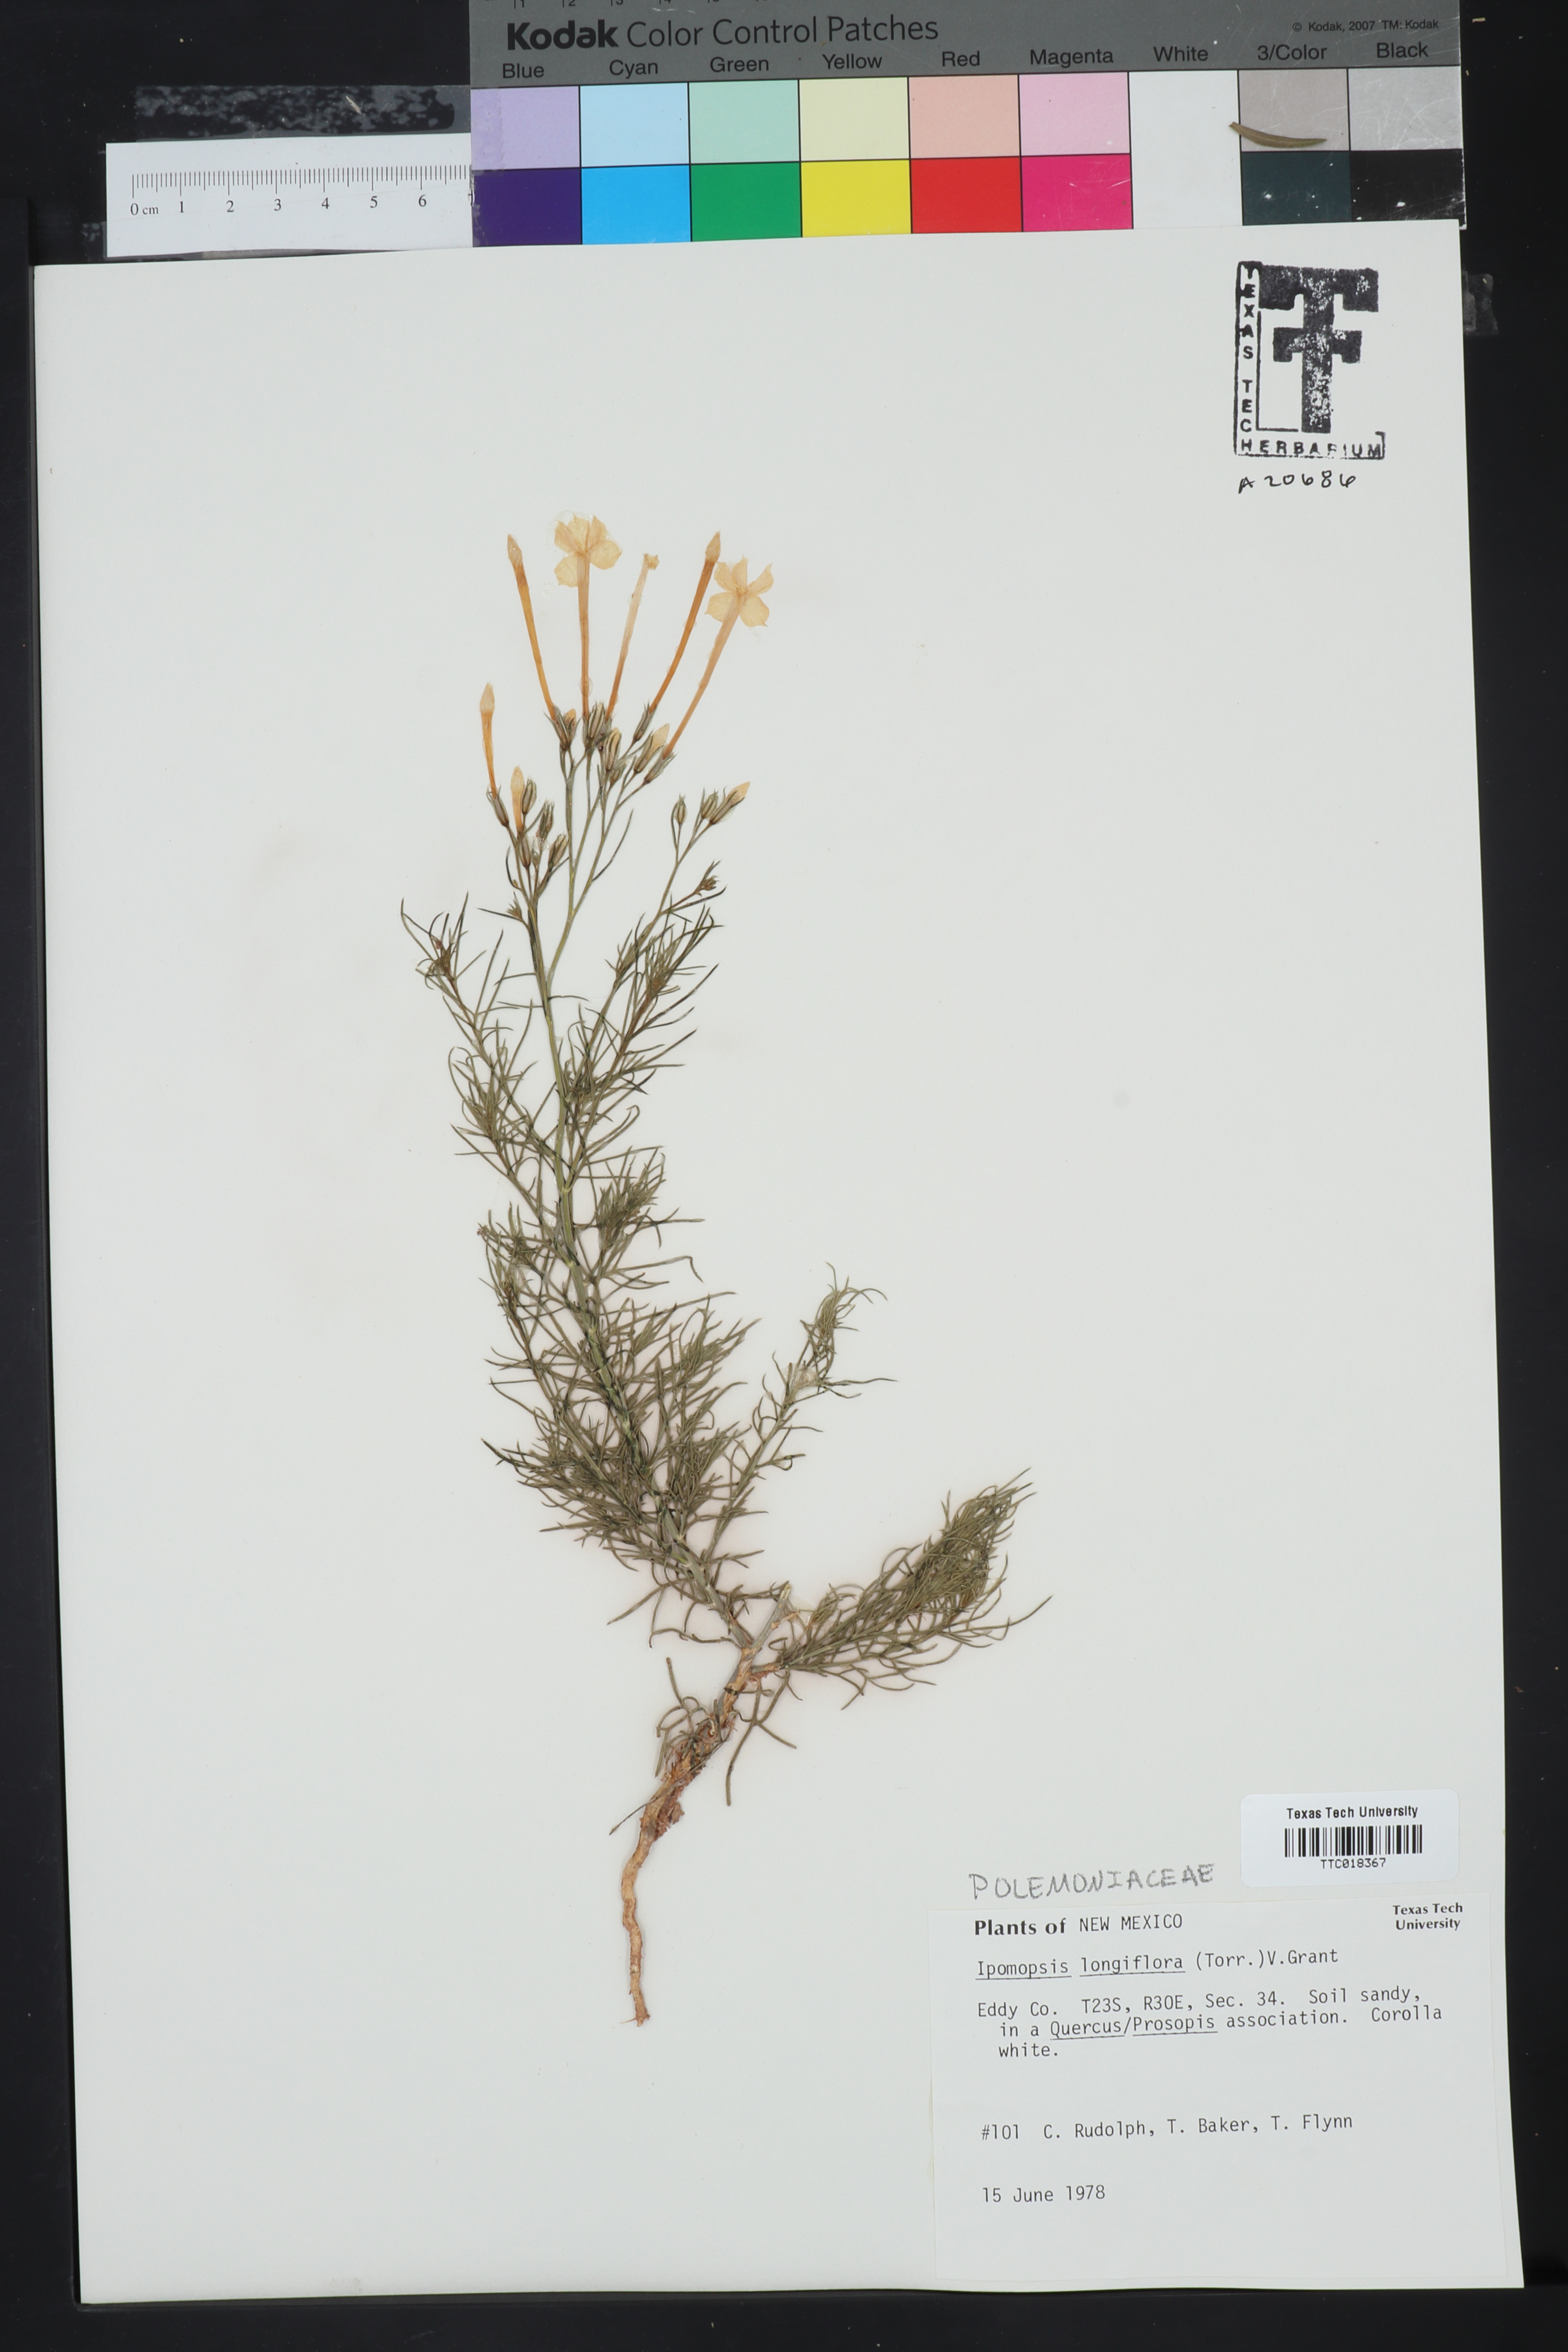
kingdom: Plantae
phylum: Tracheophyta
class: Magnoliopsida
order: Ericales
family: Polemoniaceae
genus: Ipomopsis
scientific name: Ipomopsis longiflora
